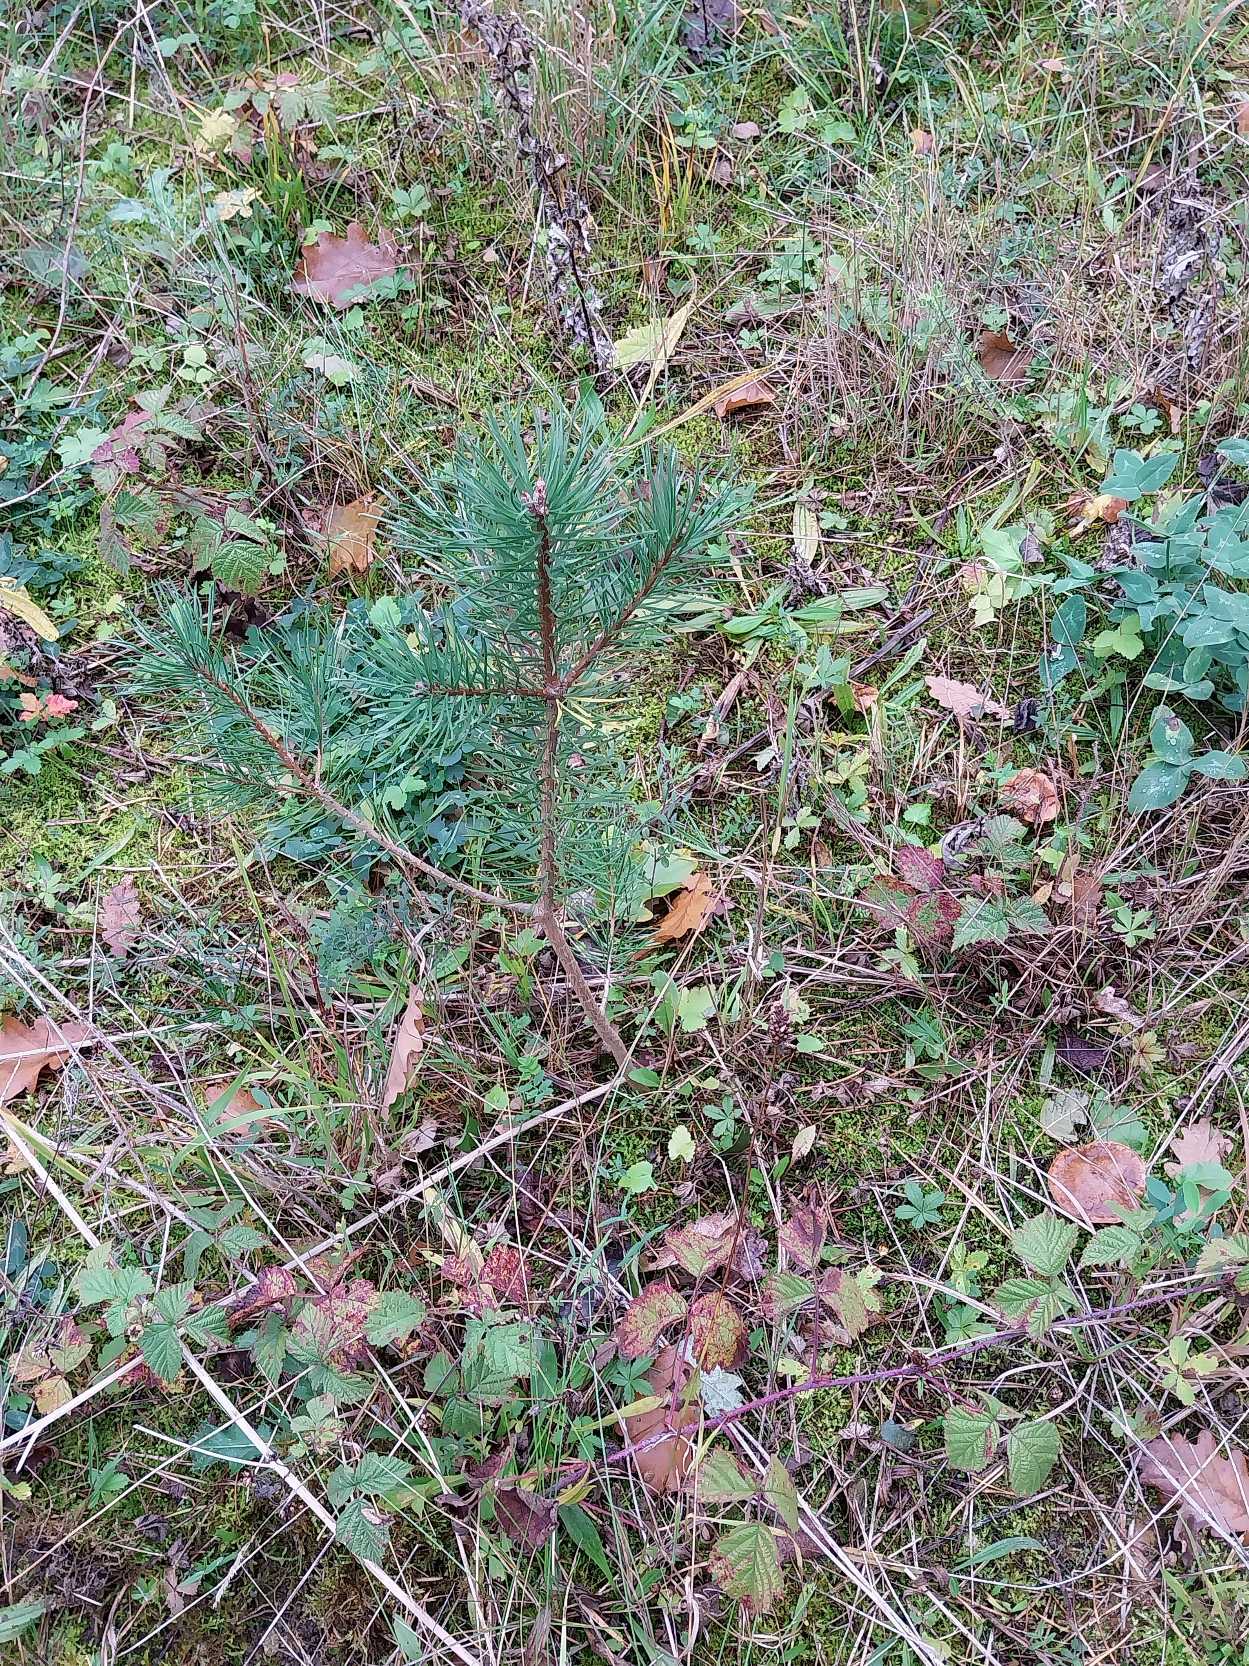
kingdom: Plantae
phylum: Tracheophyta
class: Pinopsida
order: Pinales
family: Pinaceae
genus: Pinus
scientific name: Pinus sylvestris
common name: Skov-fyr
